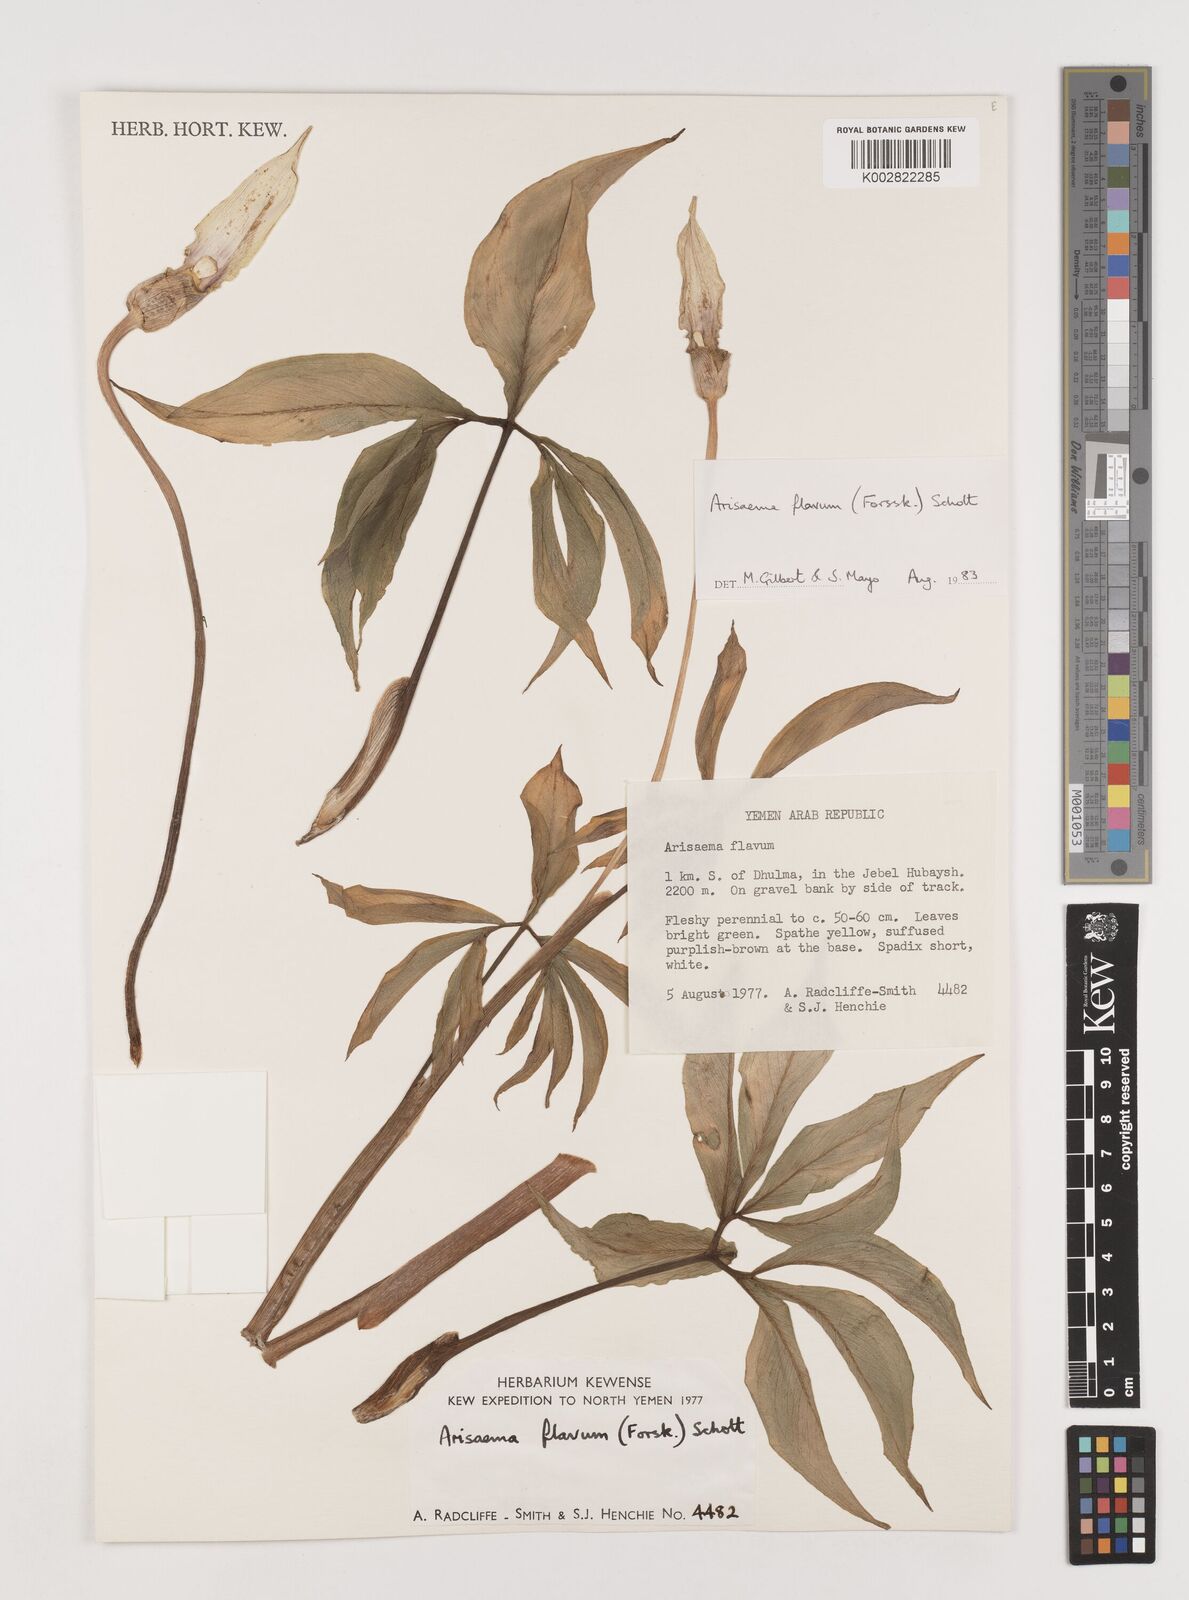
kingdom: Plantae
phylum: Tracheophyta
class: Liliopsida
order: Alismatales
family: Araceae
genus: Arisaema
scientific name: Arisaema flavum
